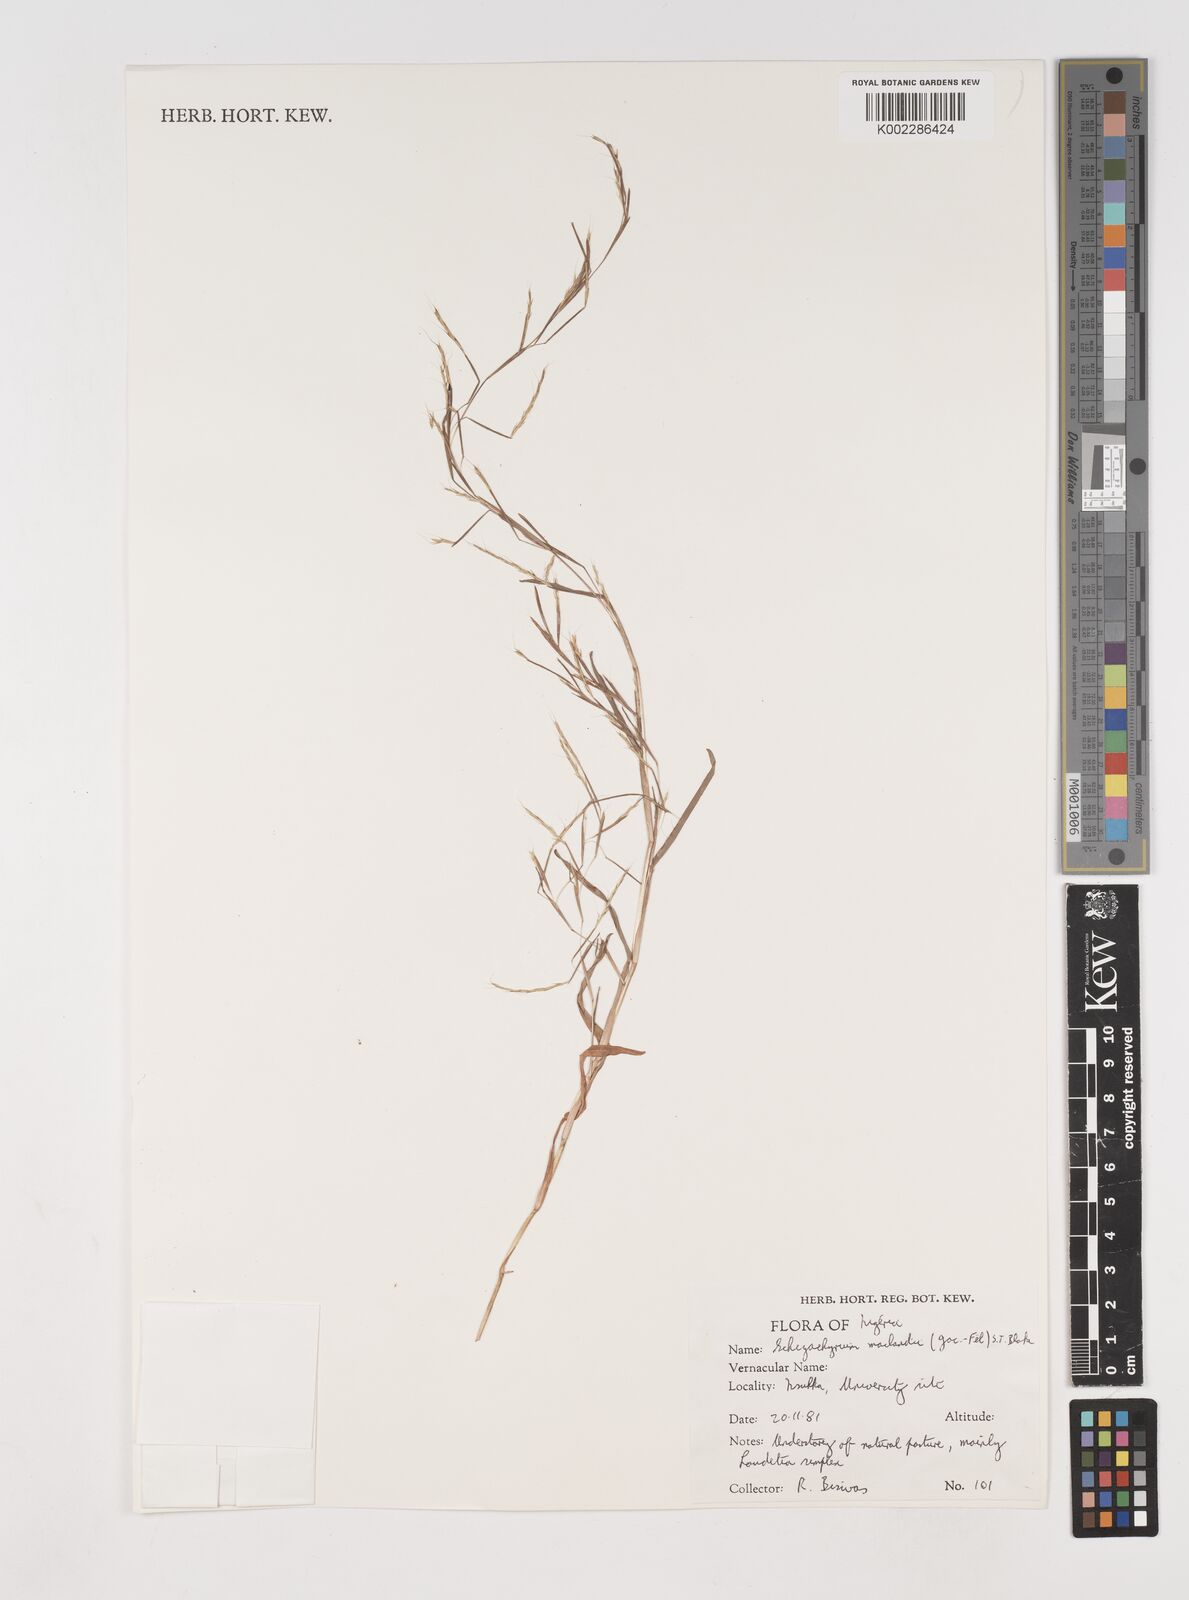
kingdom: Plantae
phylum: Tracheophyta
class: Liliopsida
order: Poales
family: Poaceae
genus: Schizachyrium
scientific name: Schizachyrium maclaudii
